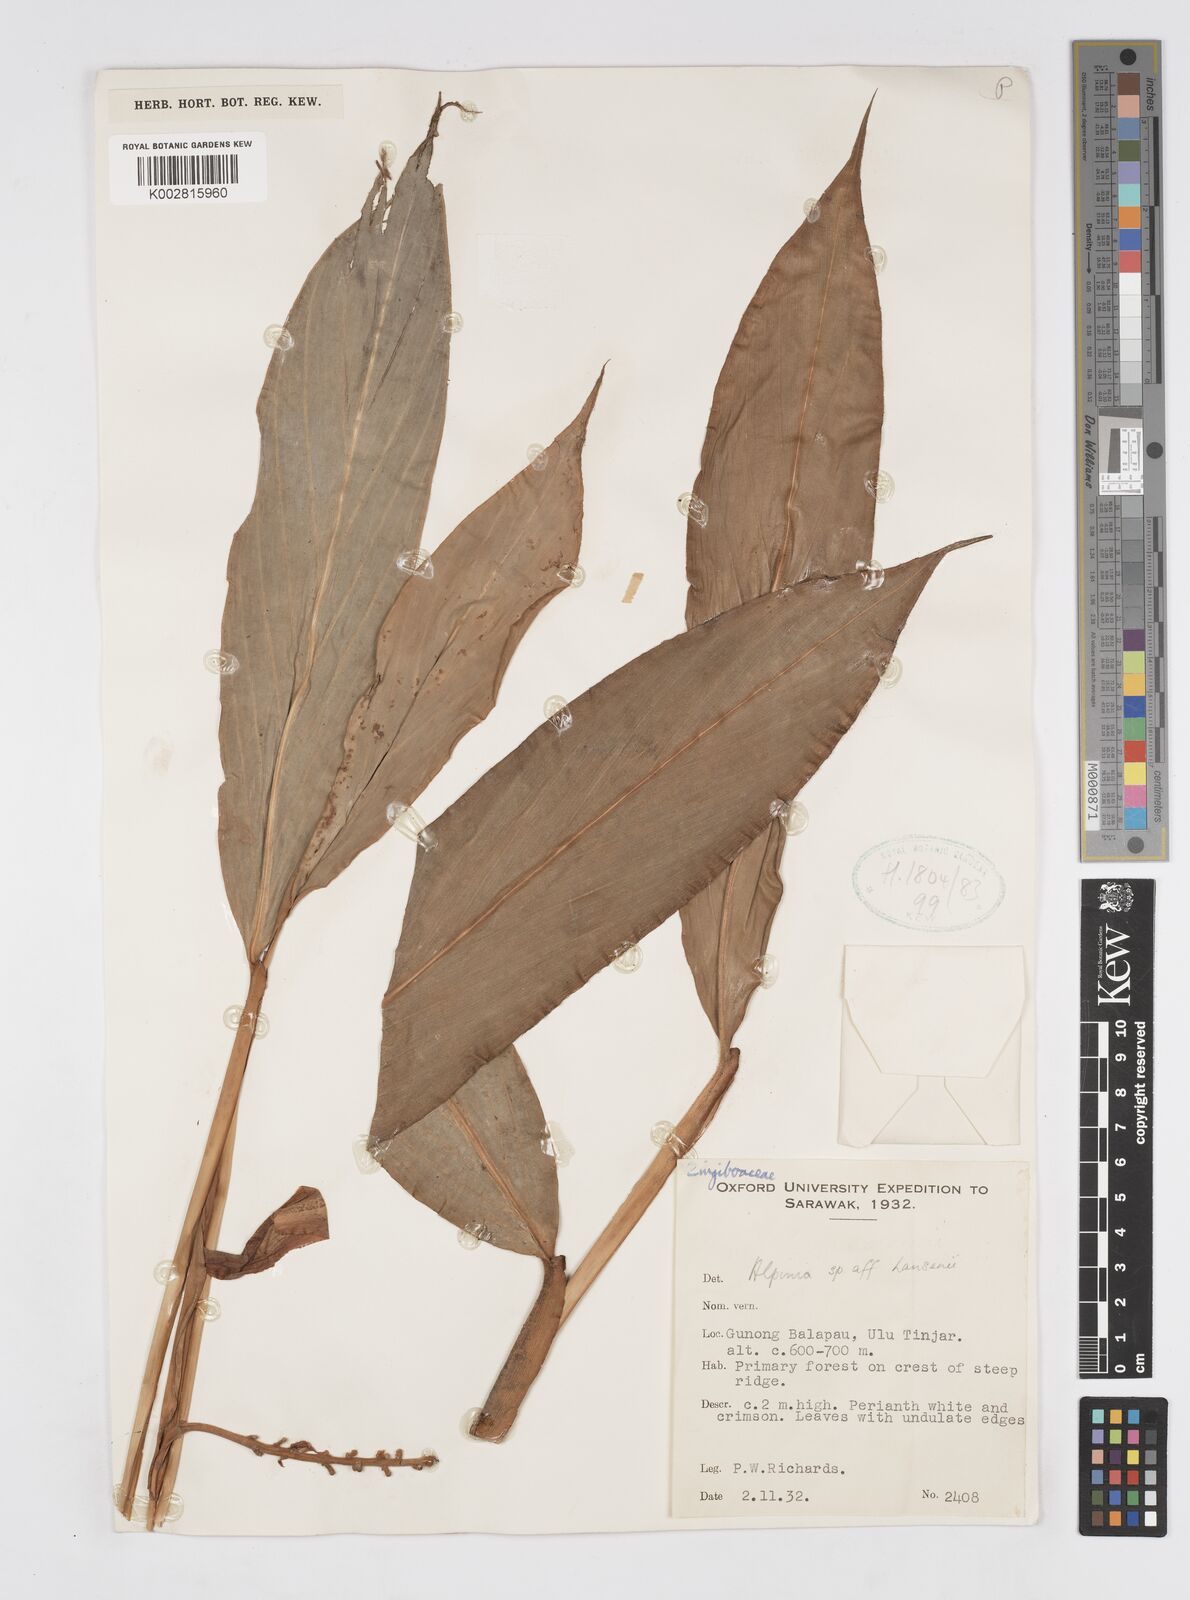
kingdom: Plantae
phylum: Tracheophyta
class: Liliopsida
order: Zingiberales
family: Zingiberaceae
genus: Alpinia
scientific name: Alpinia hansenii
